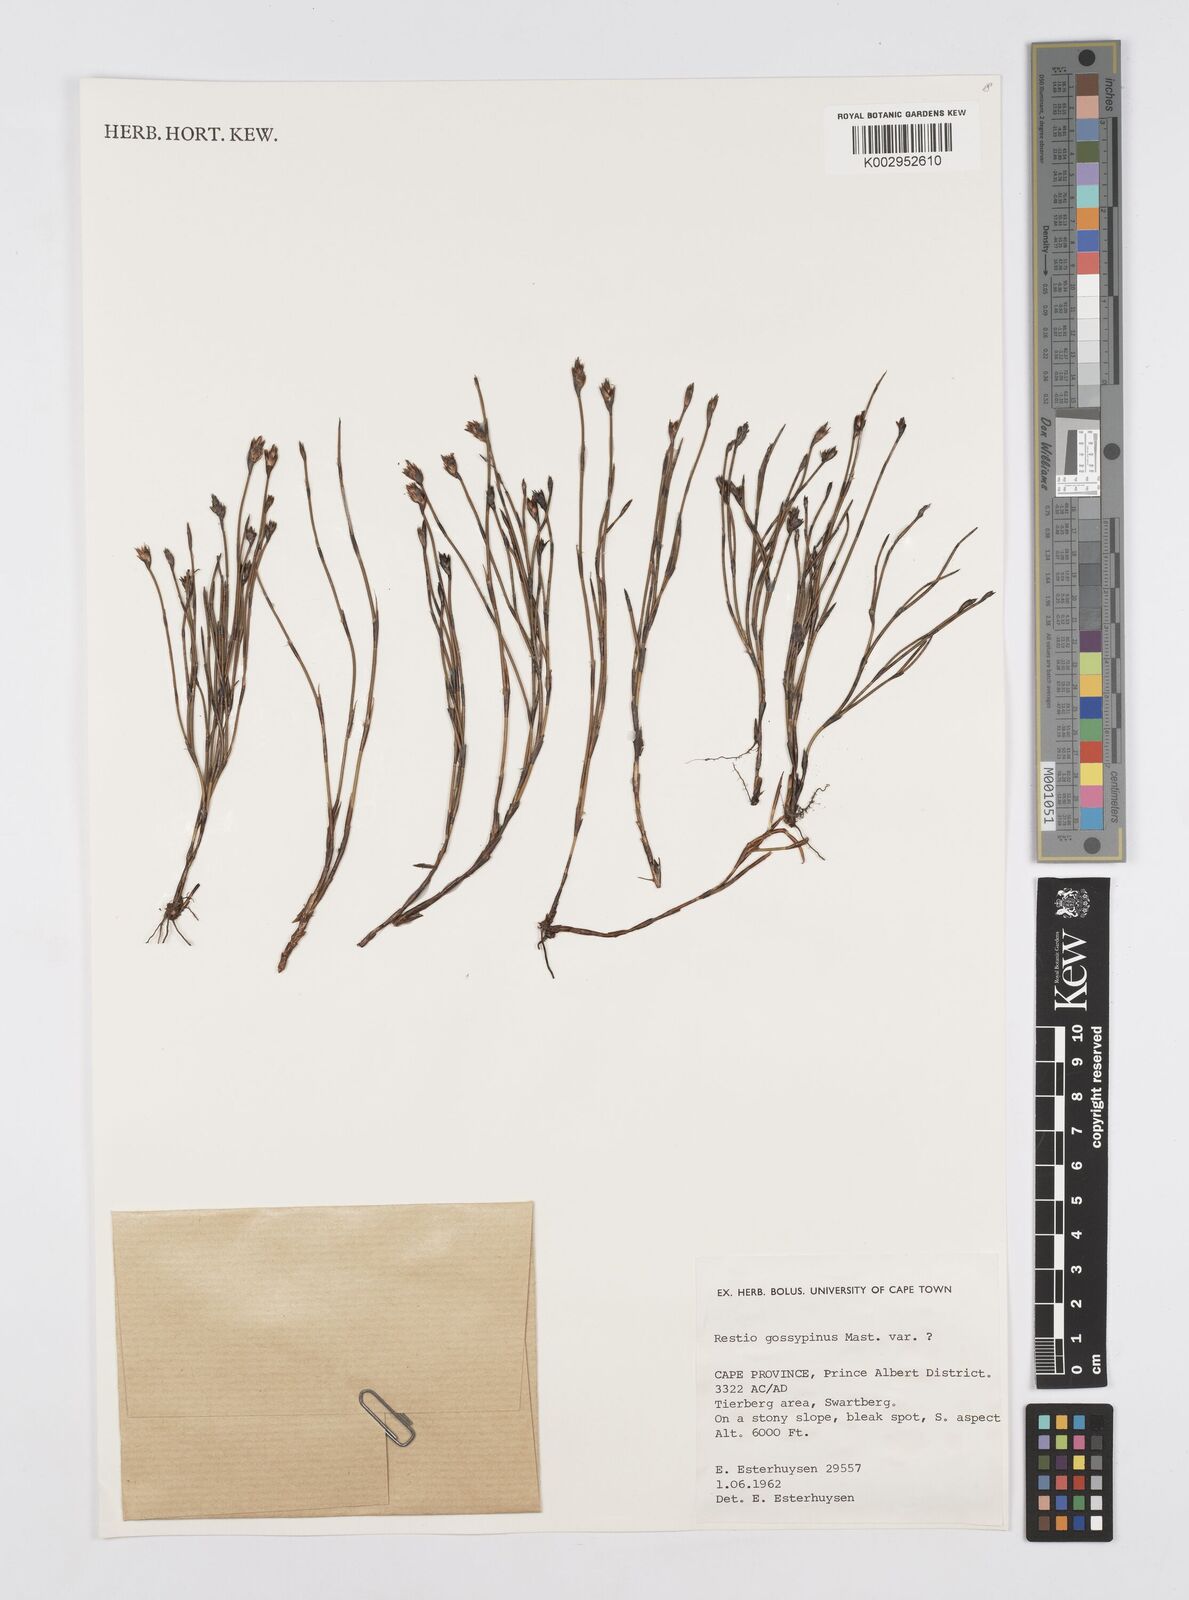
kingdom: Plantae
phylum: Tracheophyta
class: Liliopsida
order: Poales
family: Restionaceae
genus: Restio
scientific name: Restio gossypinus
